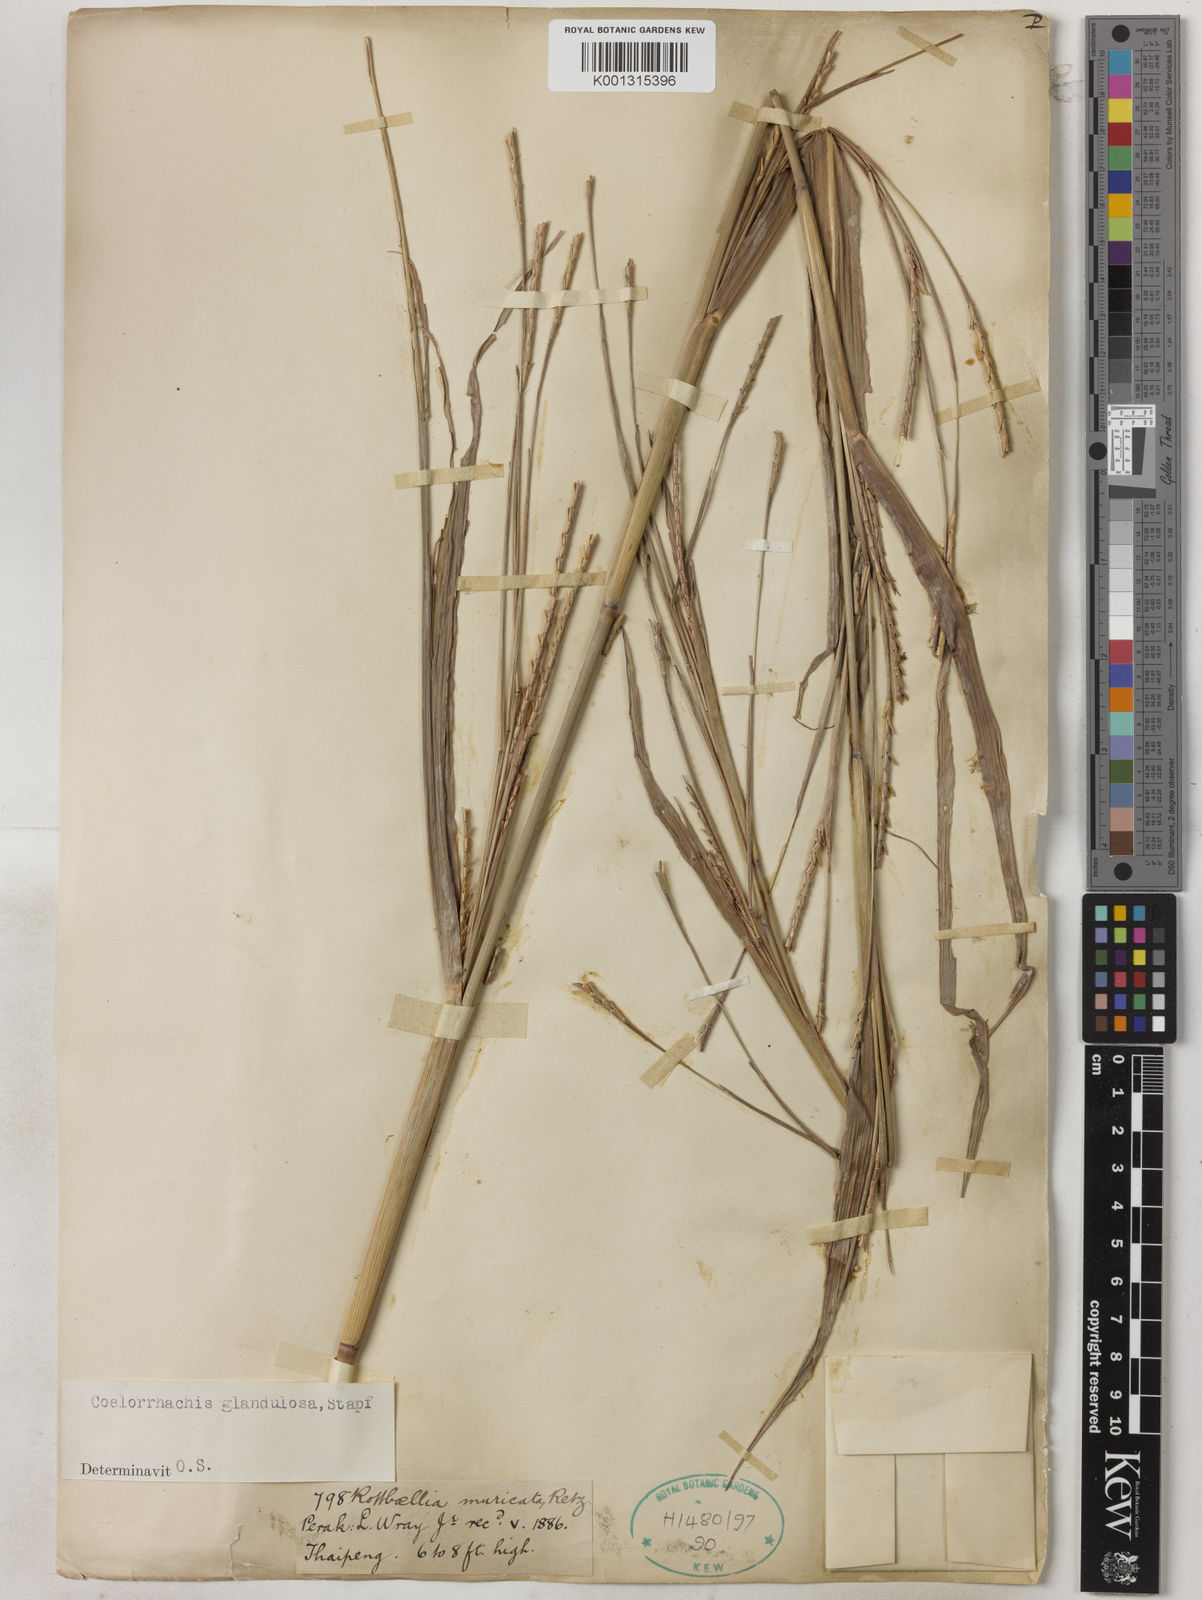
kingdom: Plantae
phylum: Tracheophyta
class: Liliopsida
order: Poales
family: Poaceae
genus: Rottboellia
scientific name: Rottboellia glandulosa
